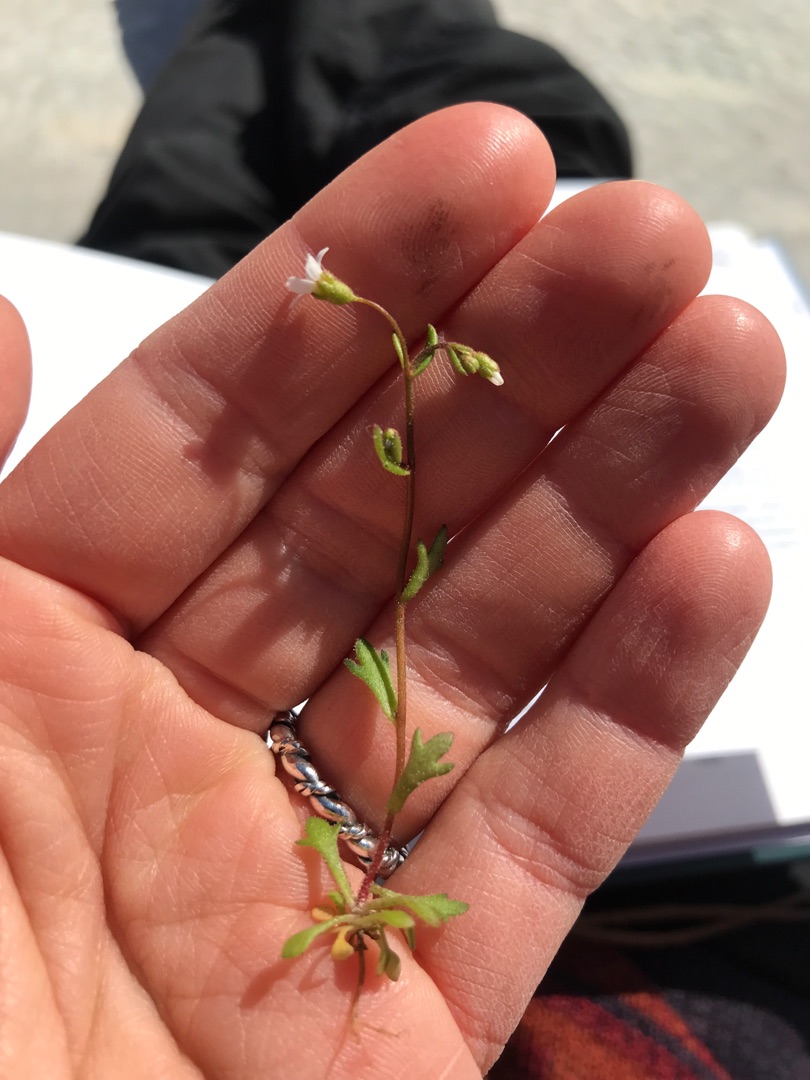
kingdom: Plantae
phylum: Tracheophyta
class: Magnoliopsida
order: Saxifragales
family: Saxifragaceae
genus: Saxifraga
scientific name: Saxifraga tridactylites
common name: Trekløft-stenbræk
